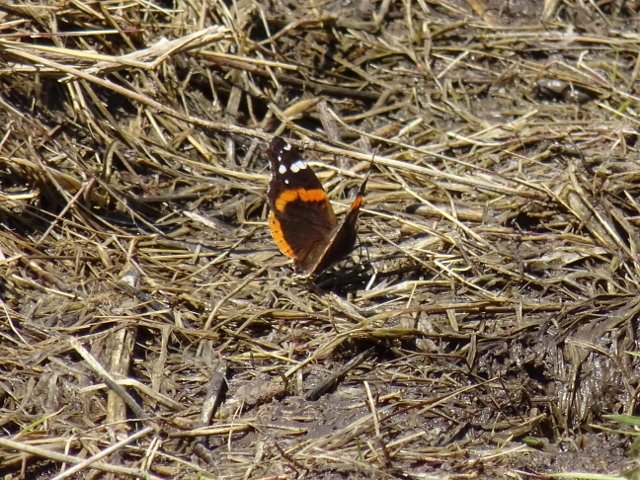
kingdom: Animalia
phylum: Arthropoda
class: Insecta
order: Lepidoptera
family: Nymphalidae
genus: Vanessa
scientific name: Vanessa atalanta
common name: Red Admiral
